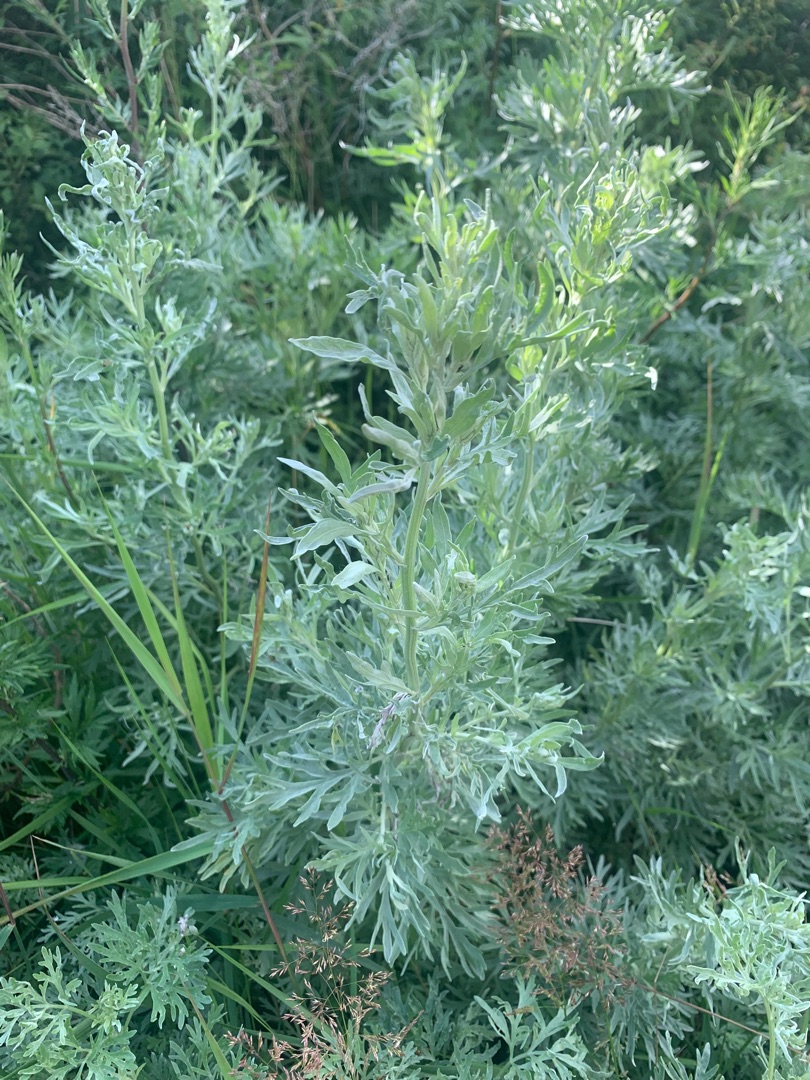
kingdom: Plantae
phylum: Tracheophyta
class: Magnoliopsida
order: Asterales
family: Asteraceae
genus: Artemisia
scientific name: Artemisia absinthium
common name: Havemalurt
